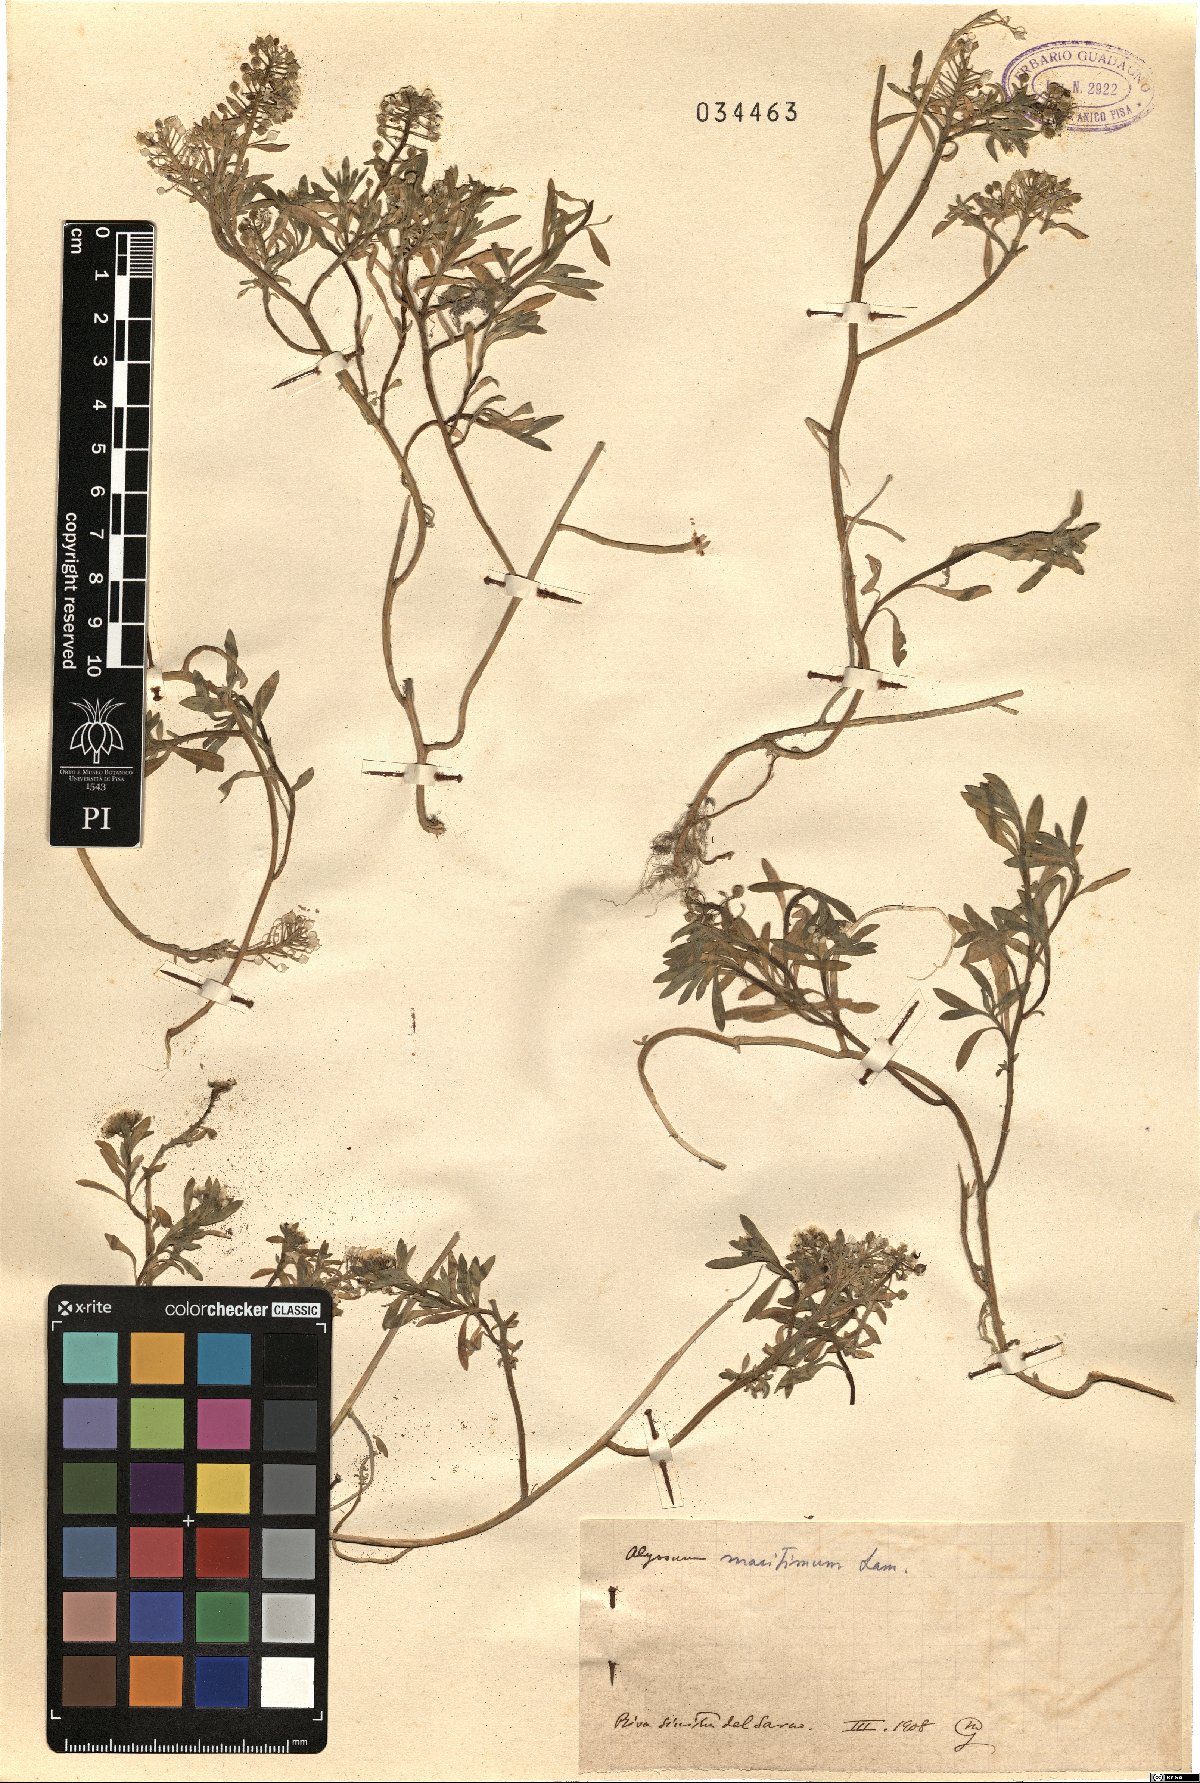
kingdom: Plantae
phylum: Tracheophyta
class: Magnoliopsida
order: Brassicales
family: Brassicaceae
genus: Lobularia
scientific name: Lobularia maritima
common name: Sweet alison
